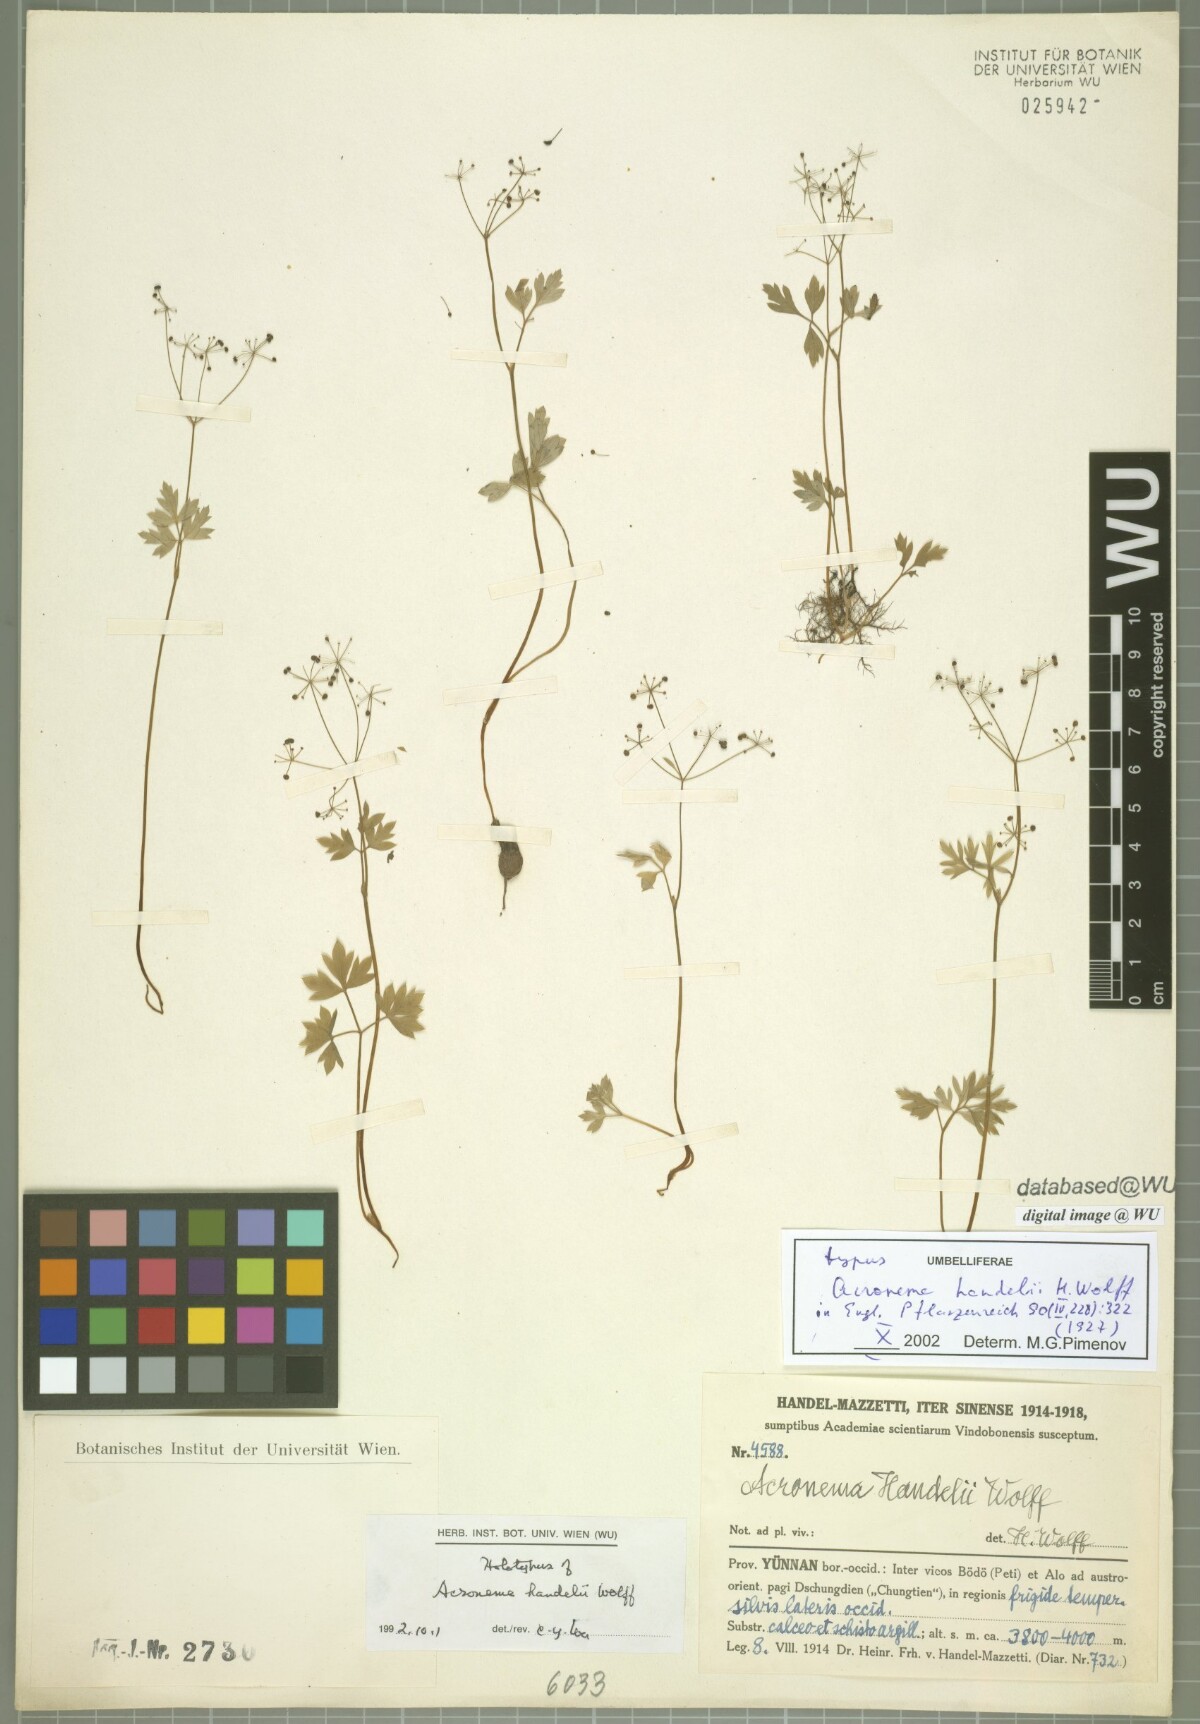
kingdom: Plantae
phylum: Tracheophyta
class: Magnoliopsida
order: Apiales
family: Apiaceae
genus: Acronema
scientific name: Acronema handelii
